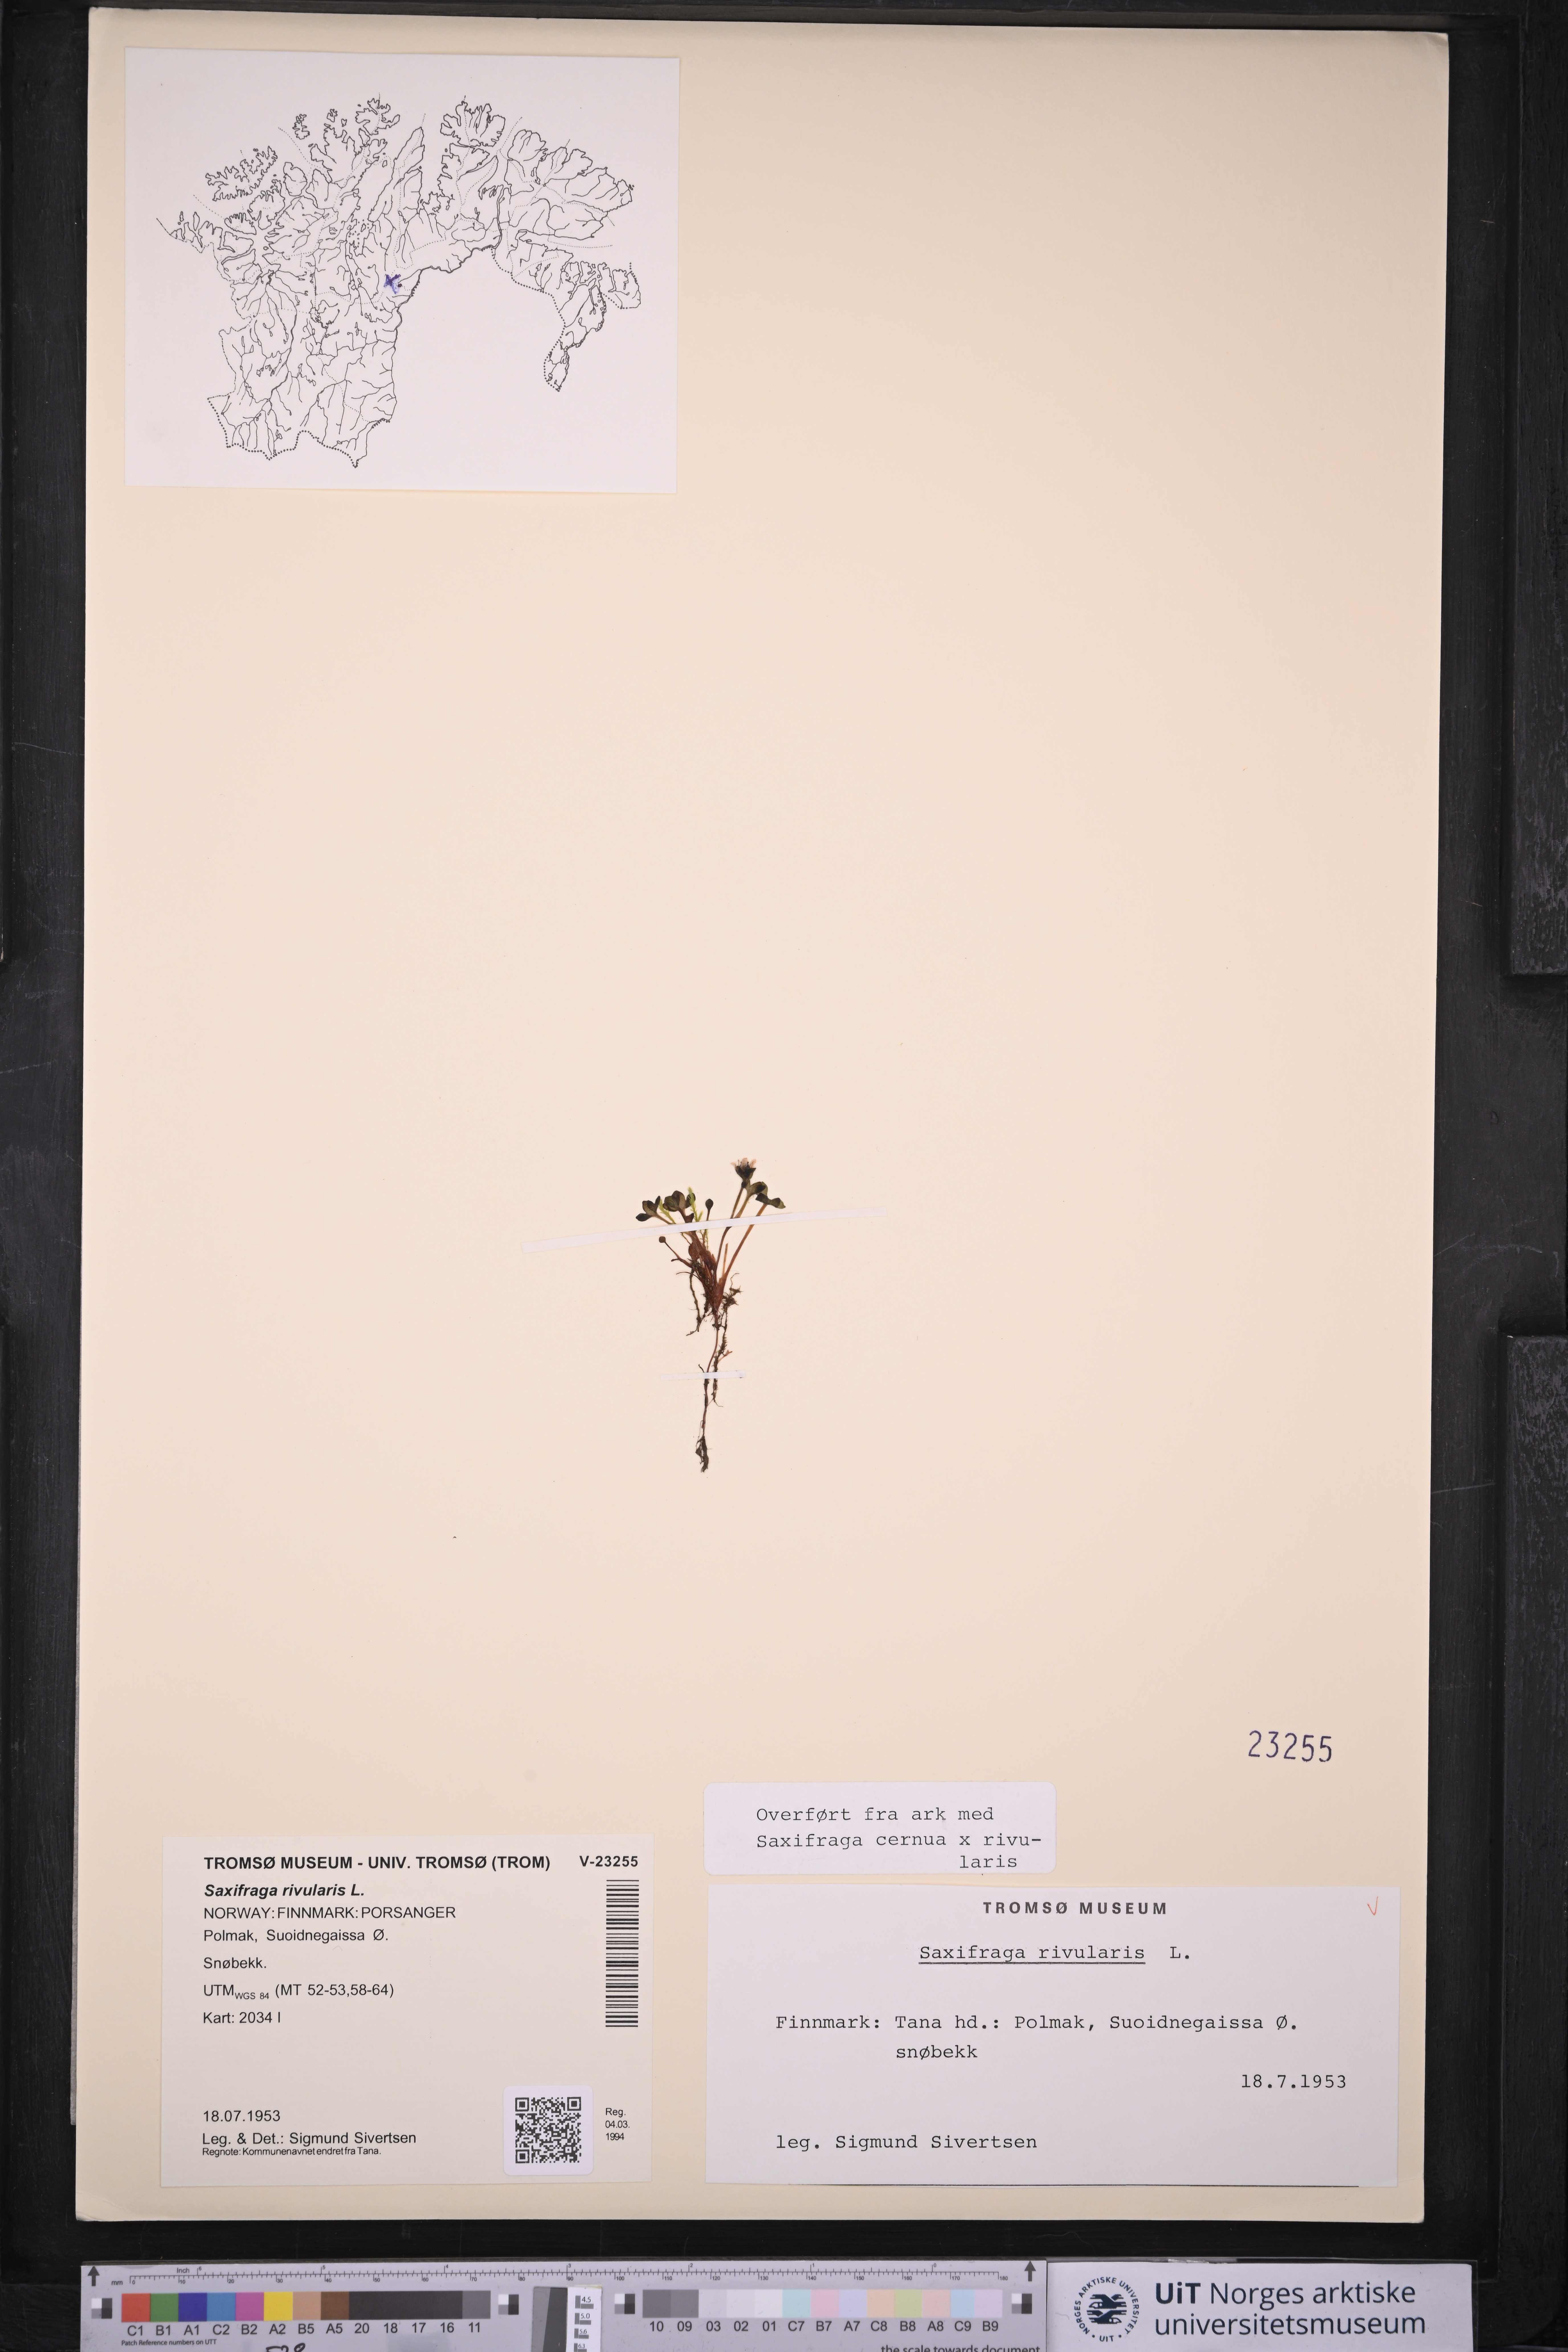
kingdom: Plantae
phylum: Tracheophyta
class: Magnoliopsida
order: Saxifragales
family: Saxifragaceae
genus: Saxifraga
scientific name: Saxifraga rivularis
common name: Highland saxifrage
